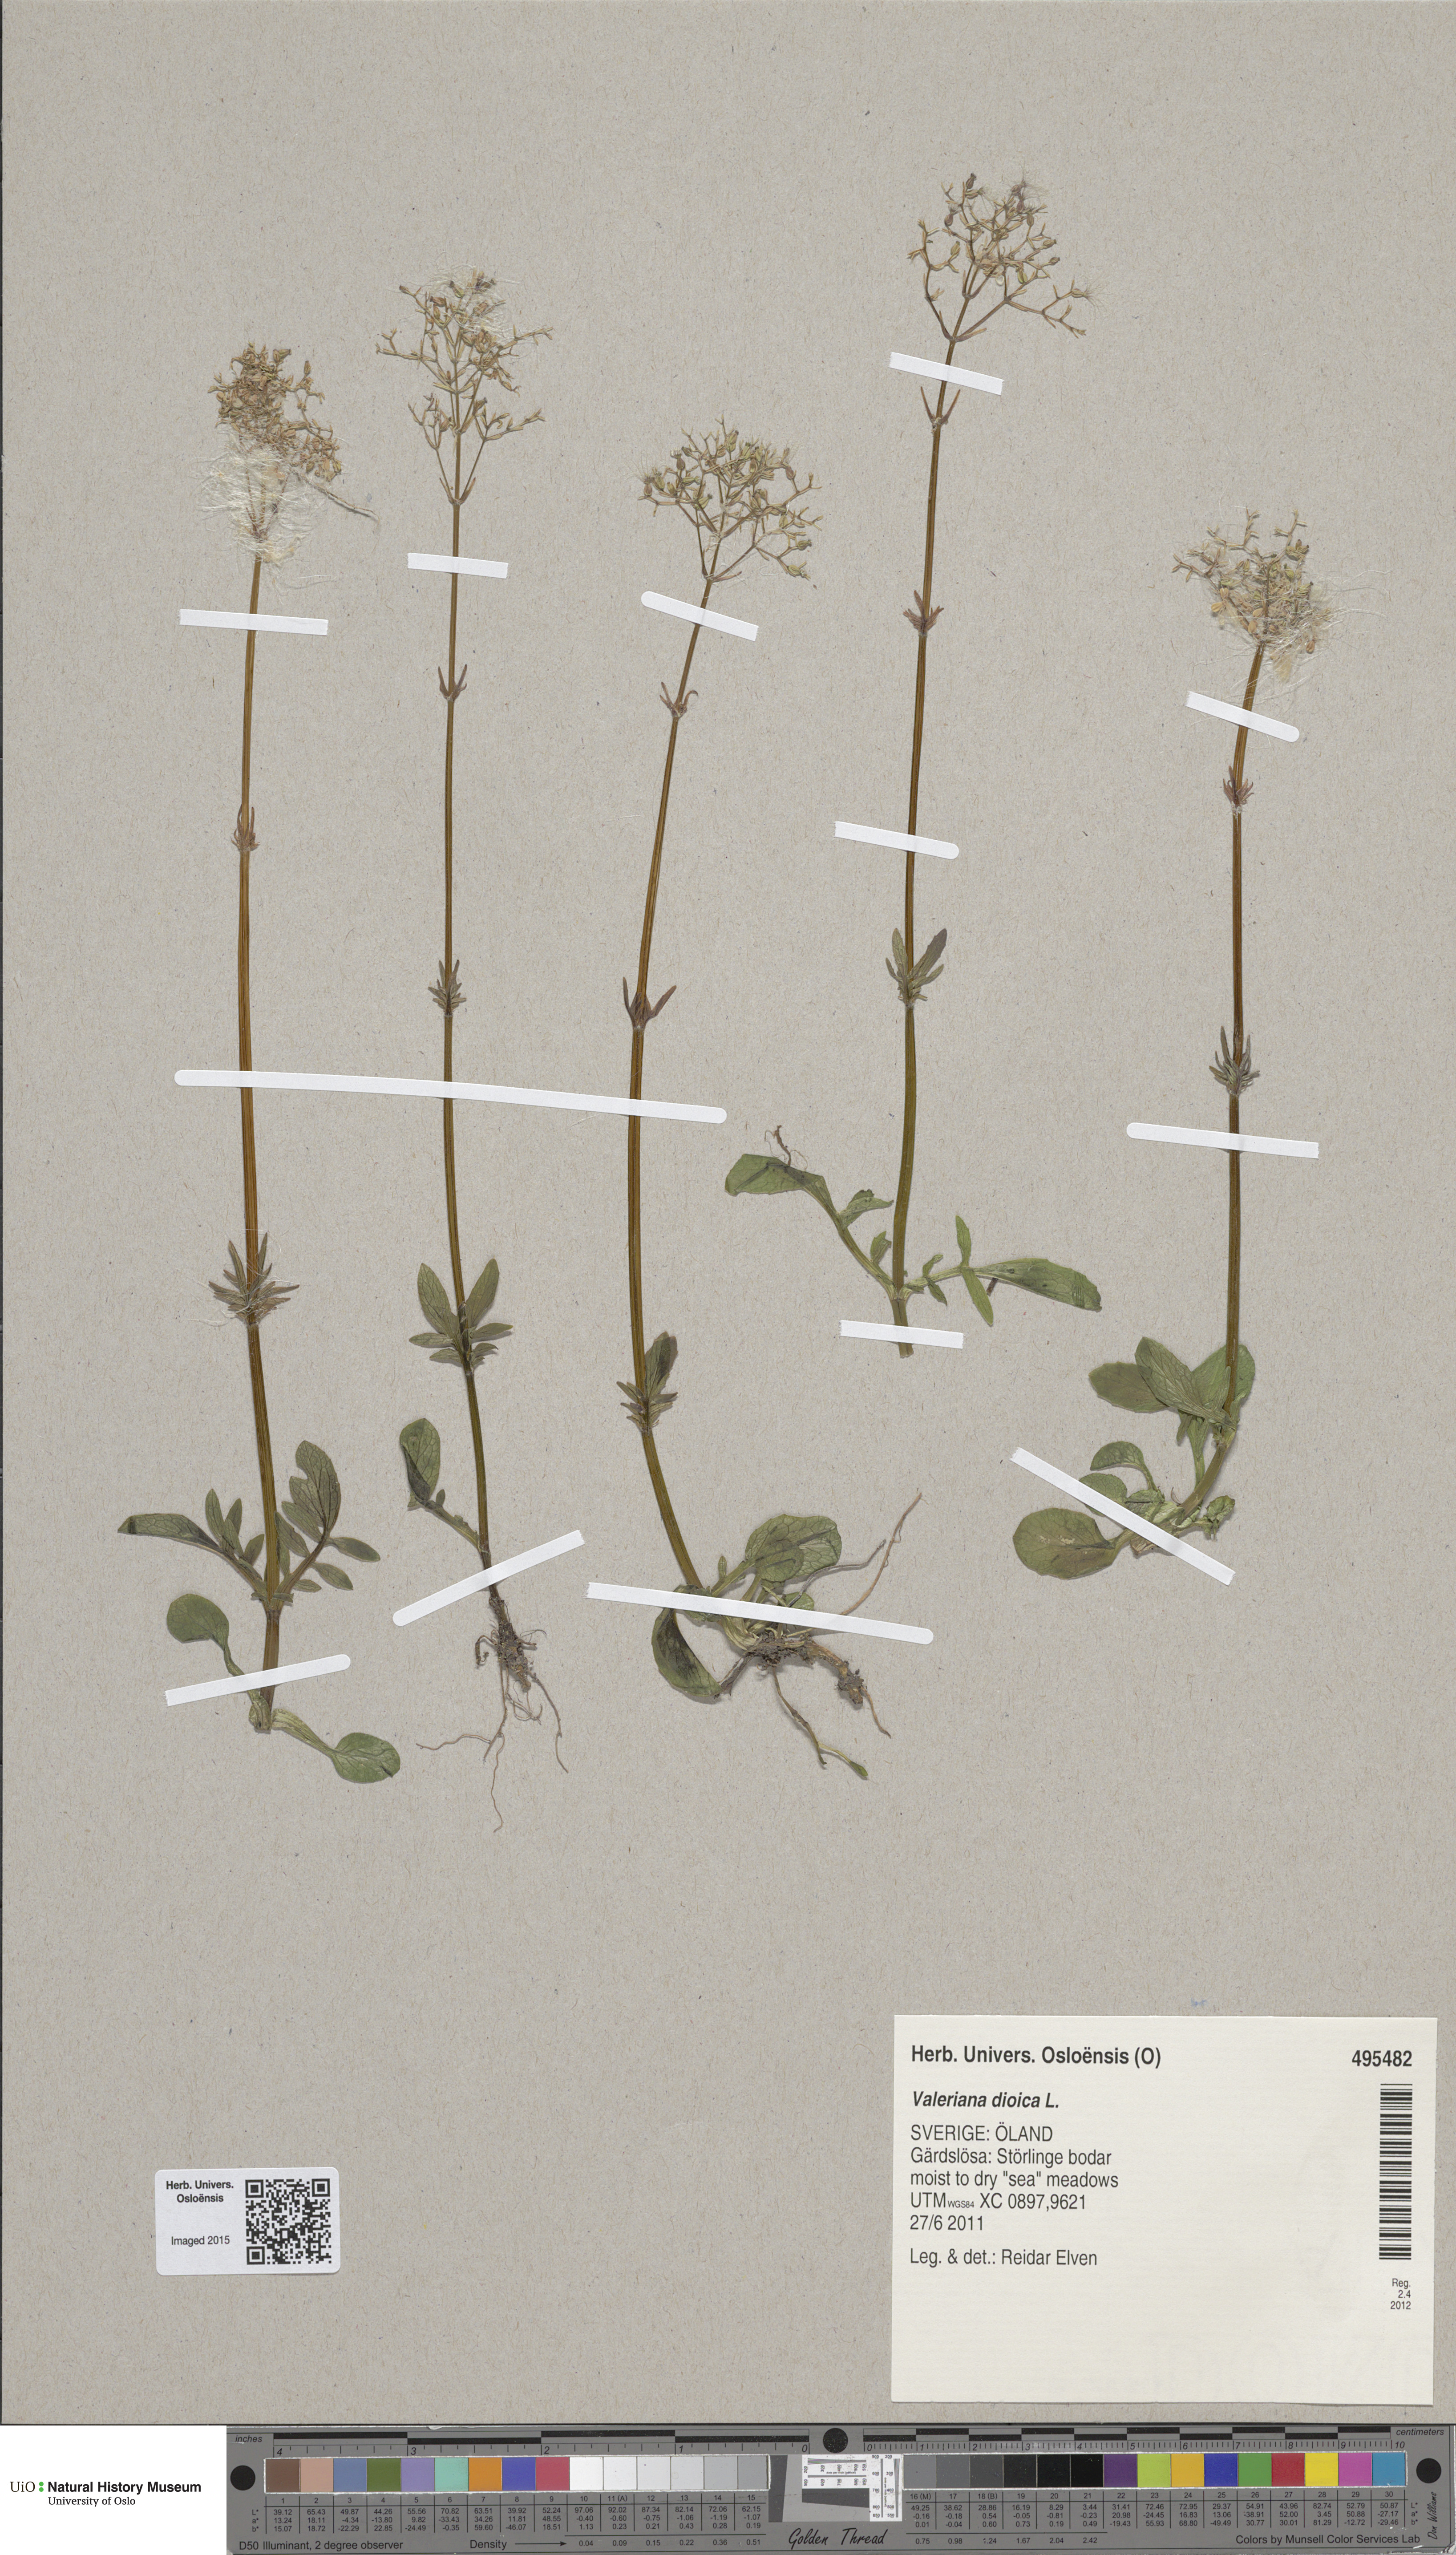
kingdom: Plantae
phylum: Tracheophyta
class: Magnoliopsida
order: Dipsacales
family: Caprifoliaceae
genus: Valeriana
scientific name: Valeriana dioica
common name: Marsh valerian
